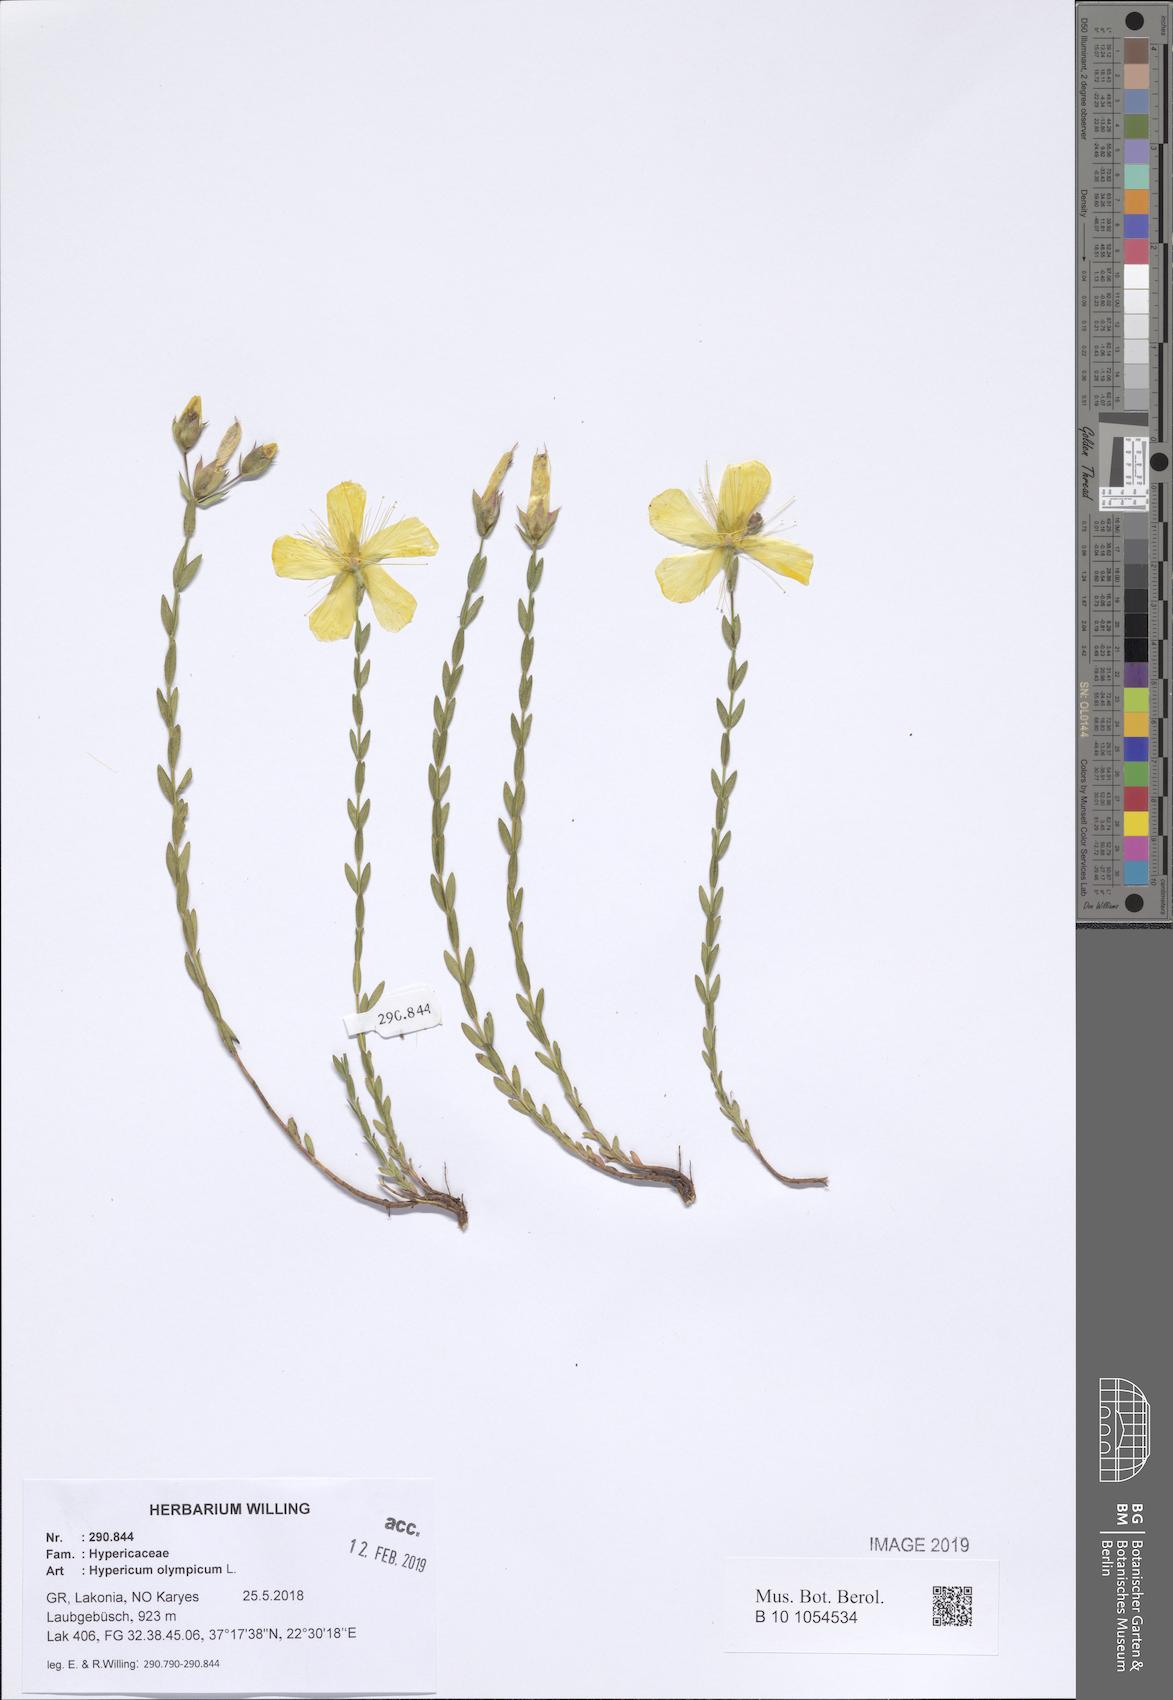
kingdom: Plantae
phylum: Tracheophyta
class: Magnoliopsida
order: Malpighiales
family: Hypericaceae
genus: Hypericum
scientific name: Hypericum olympicum
